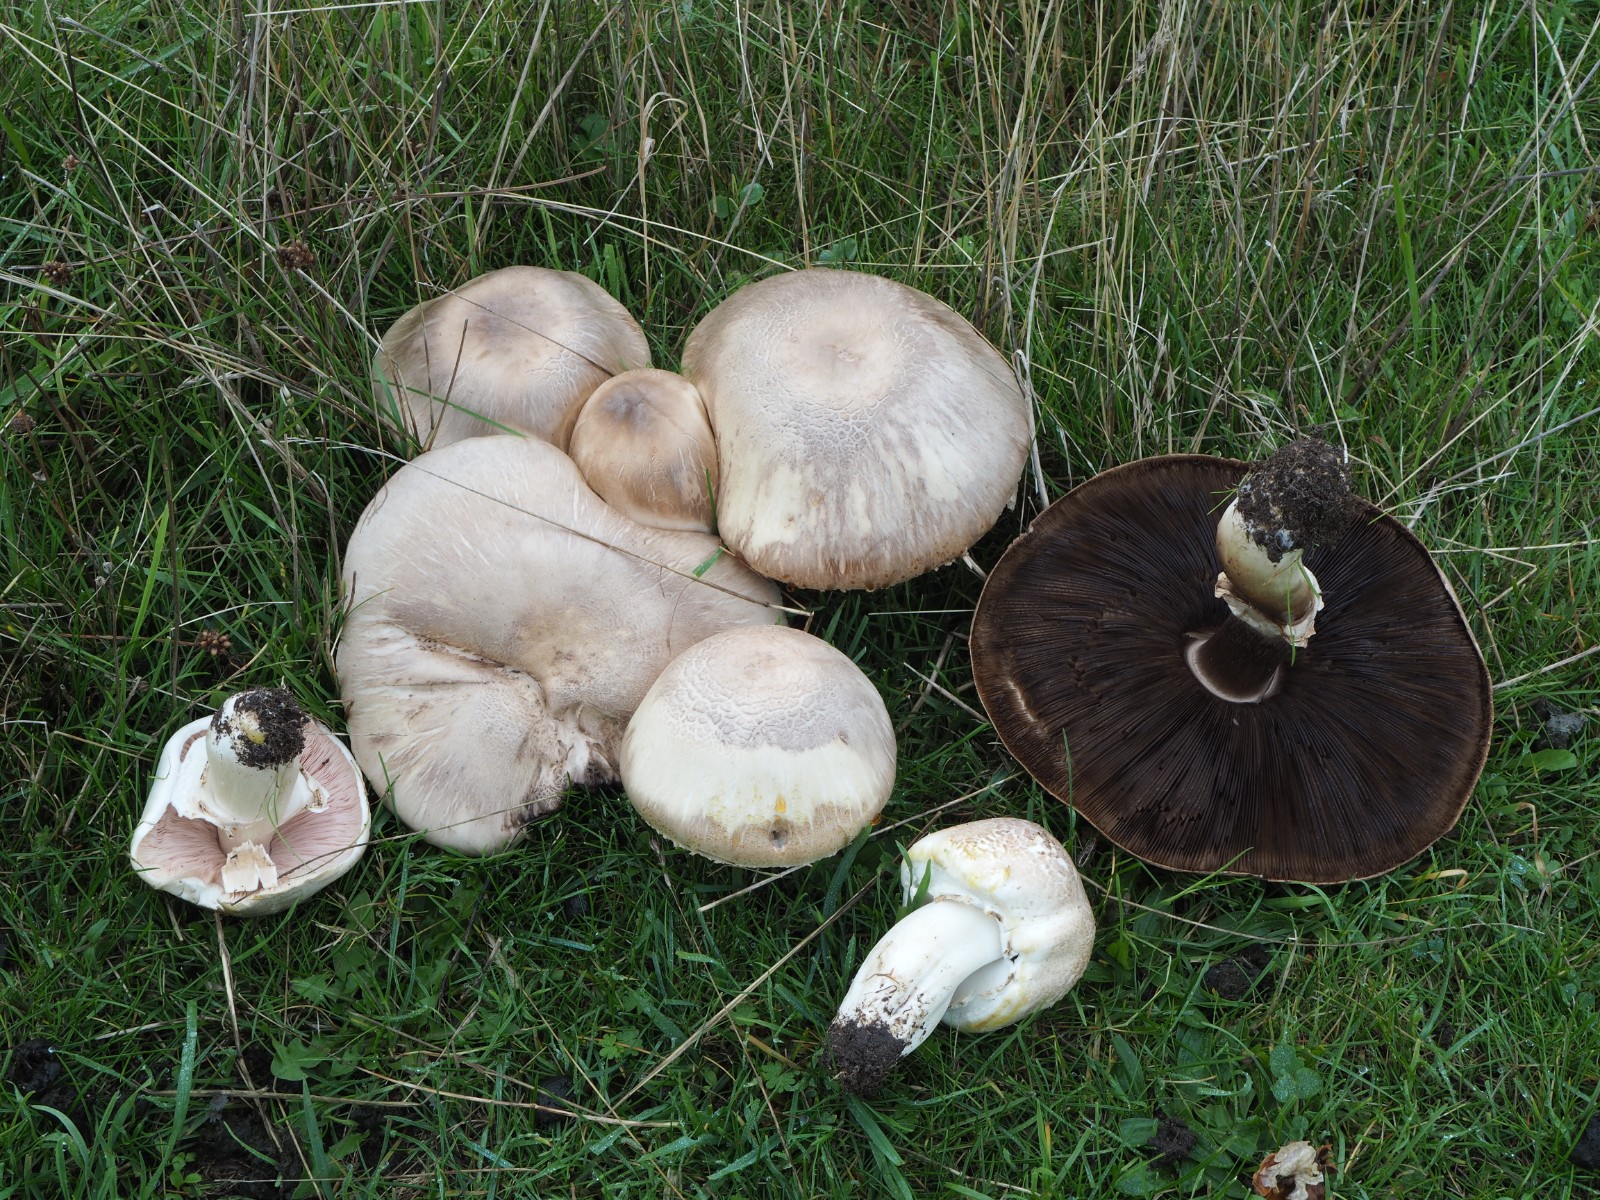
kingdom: Fungi
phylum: Basidiomycota
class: Agaricomycetes
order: Agaricales
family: Agaricaceae
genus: Agaricus
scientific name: Agaricus xanthodermus
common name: karbol-champignon
